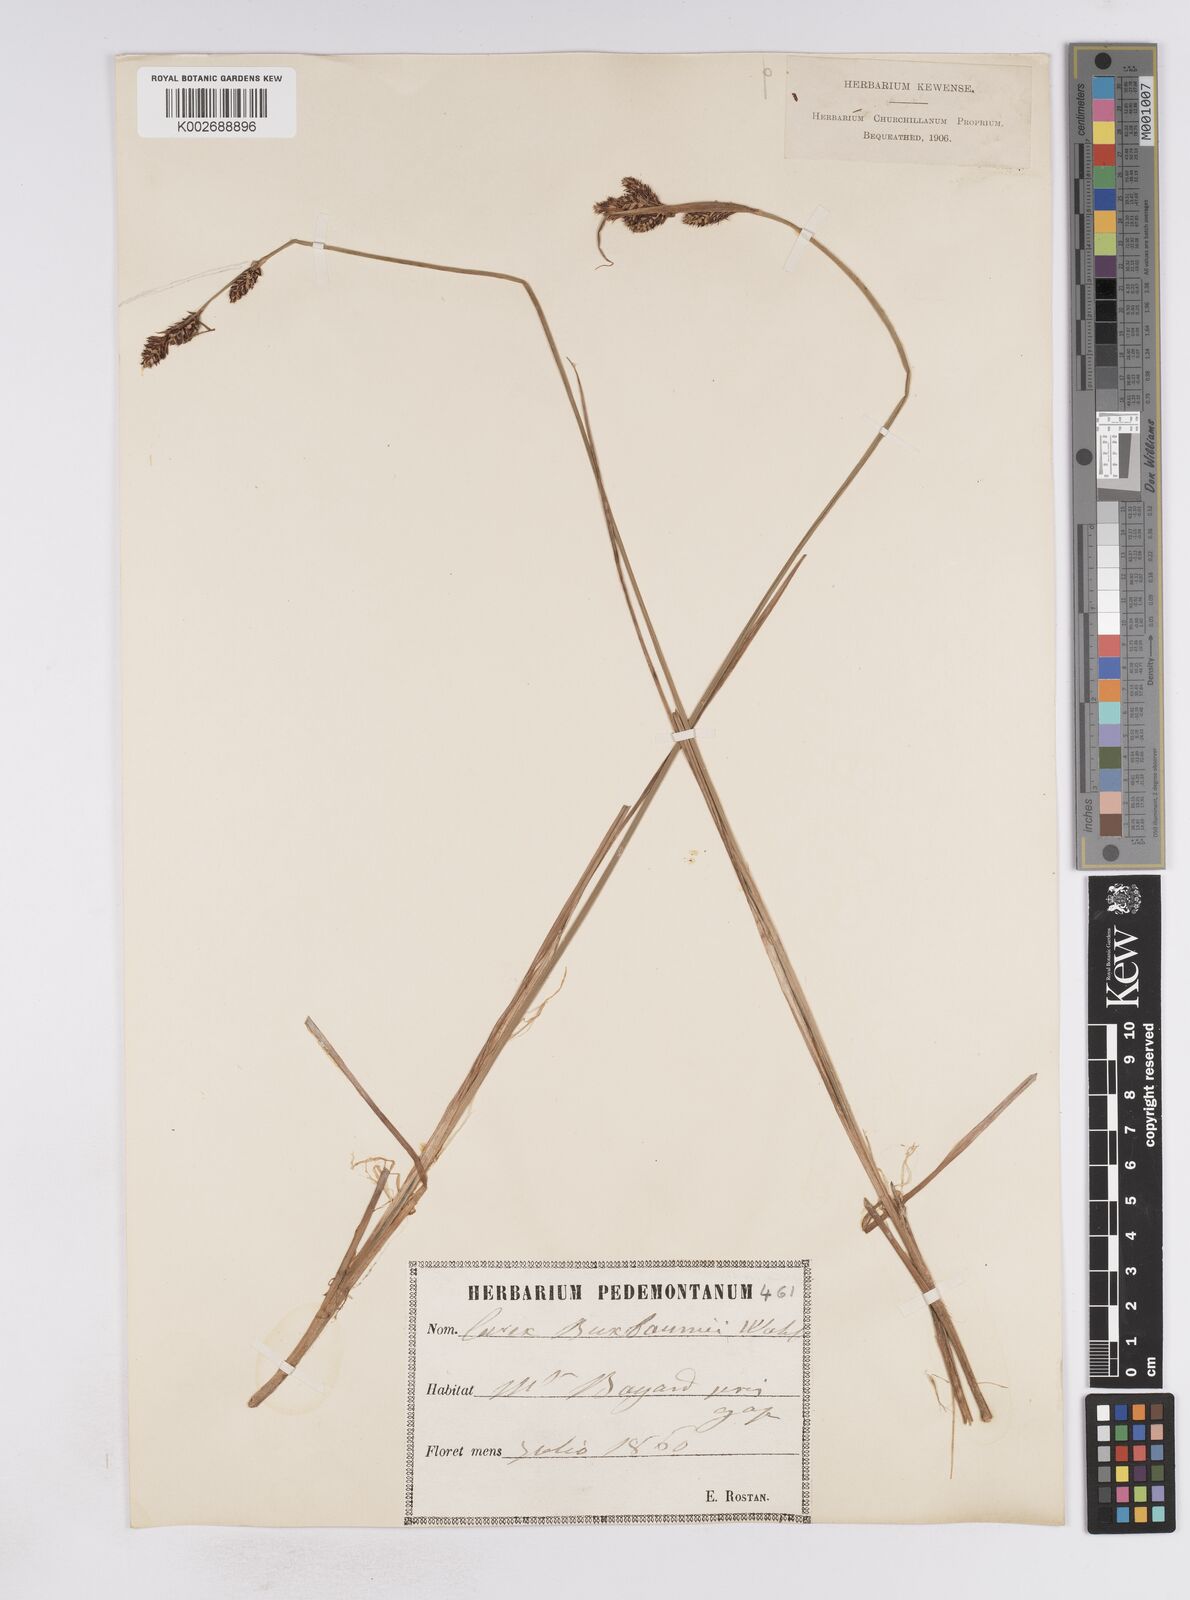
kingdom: Plantae
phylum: Tracheophyta
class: Liliopsida
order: Poales
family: Cyperaceae
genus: Carex
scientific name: Carex buxbaumii
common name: Club sedge
